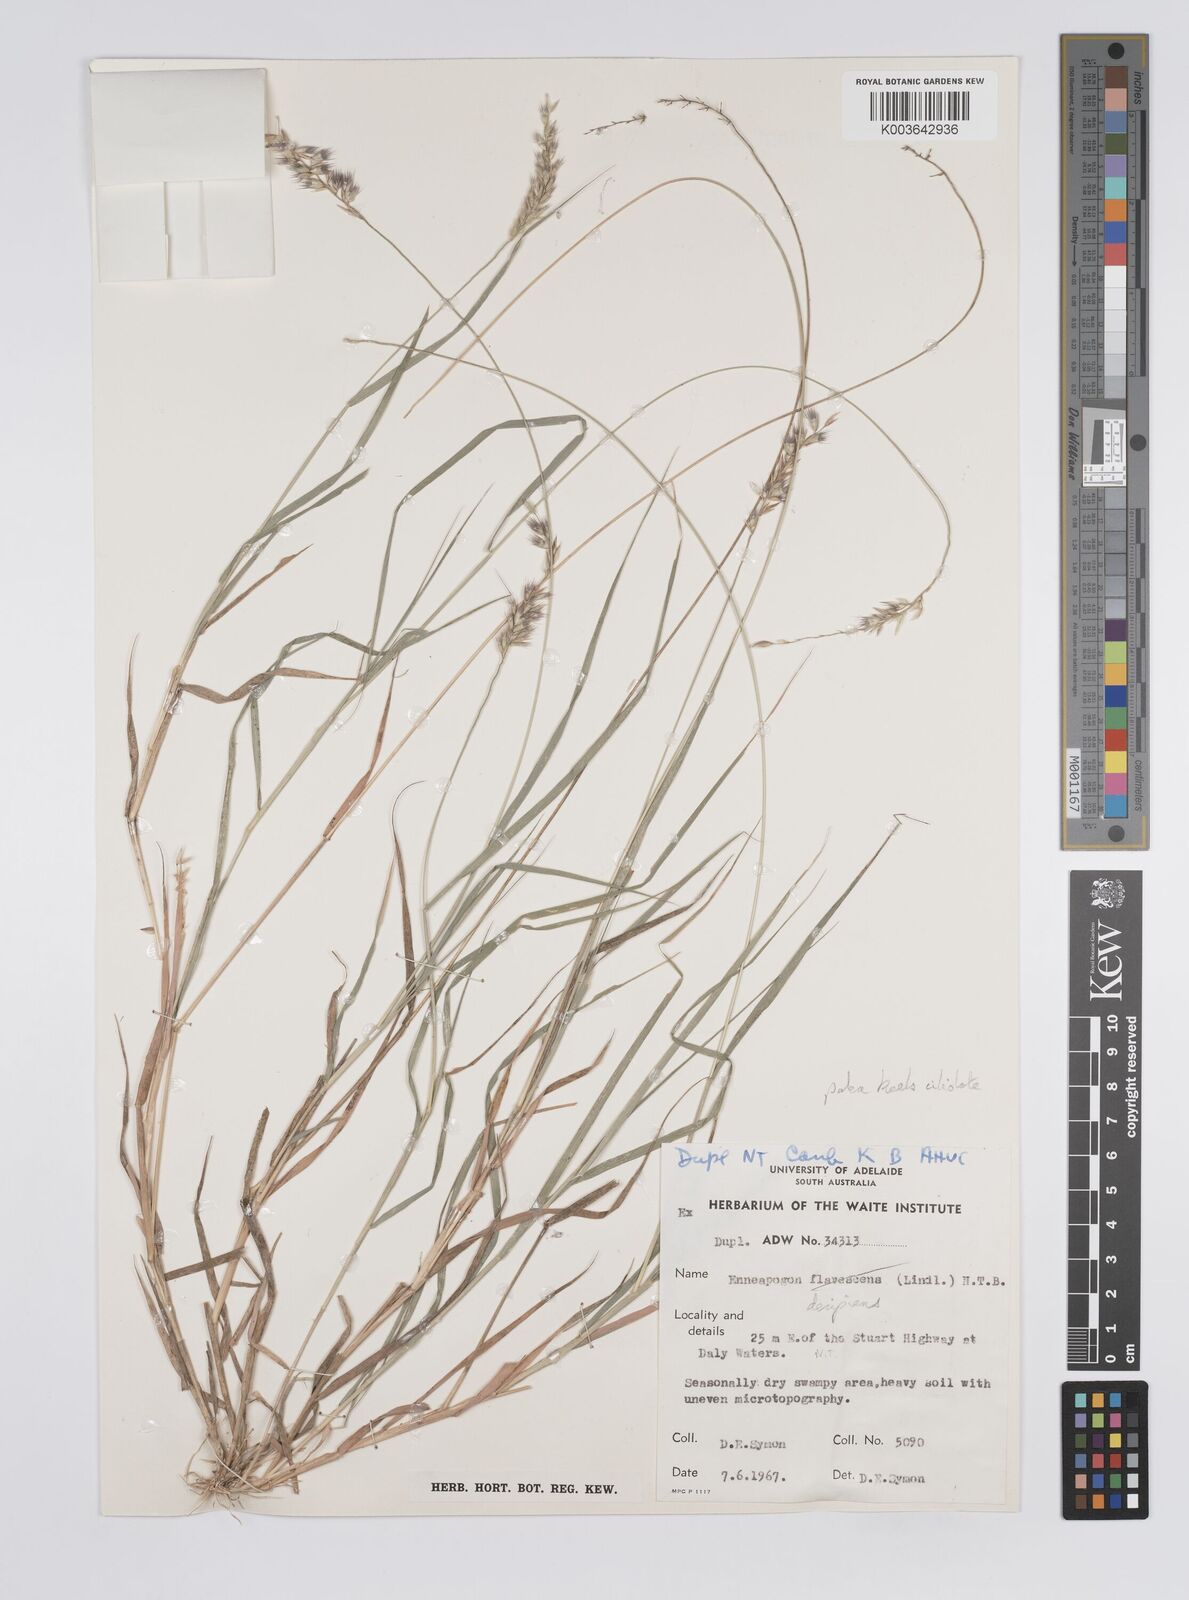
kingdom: Plantae
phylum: Tracheophyta
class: Liliopsida
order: Poales
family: Poaceae
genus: Enneapogon
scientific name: Enneapogon decipiens
